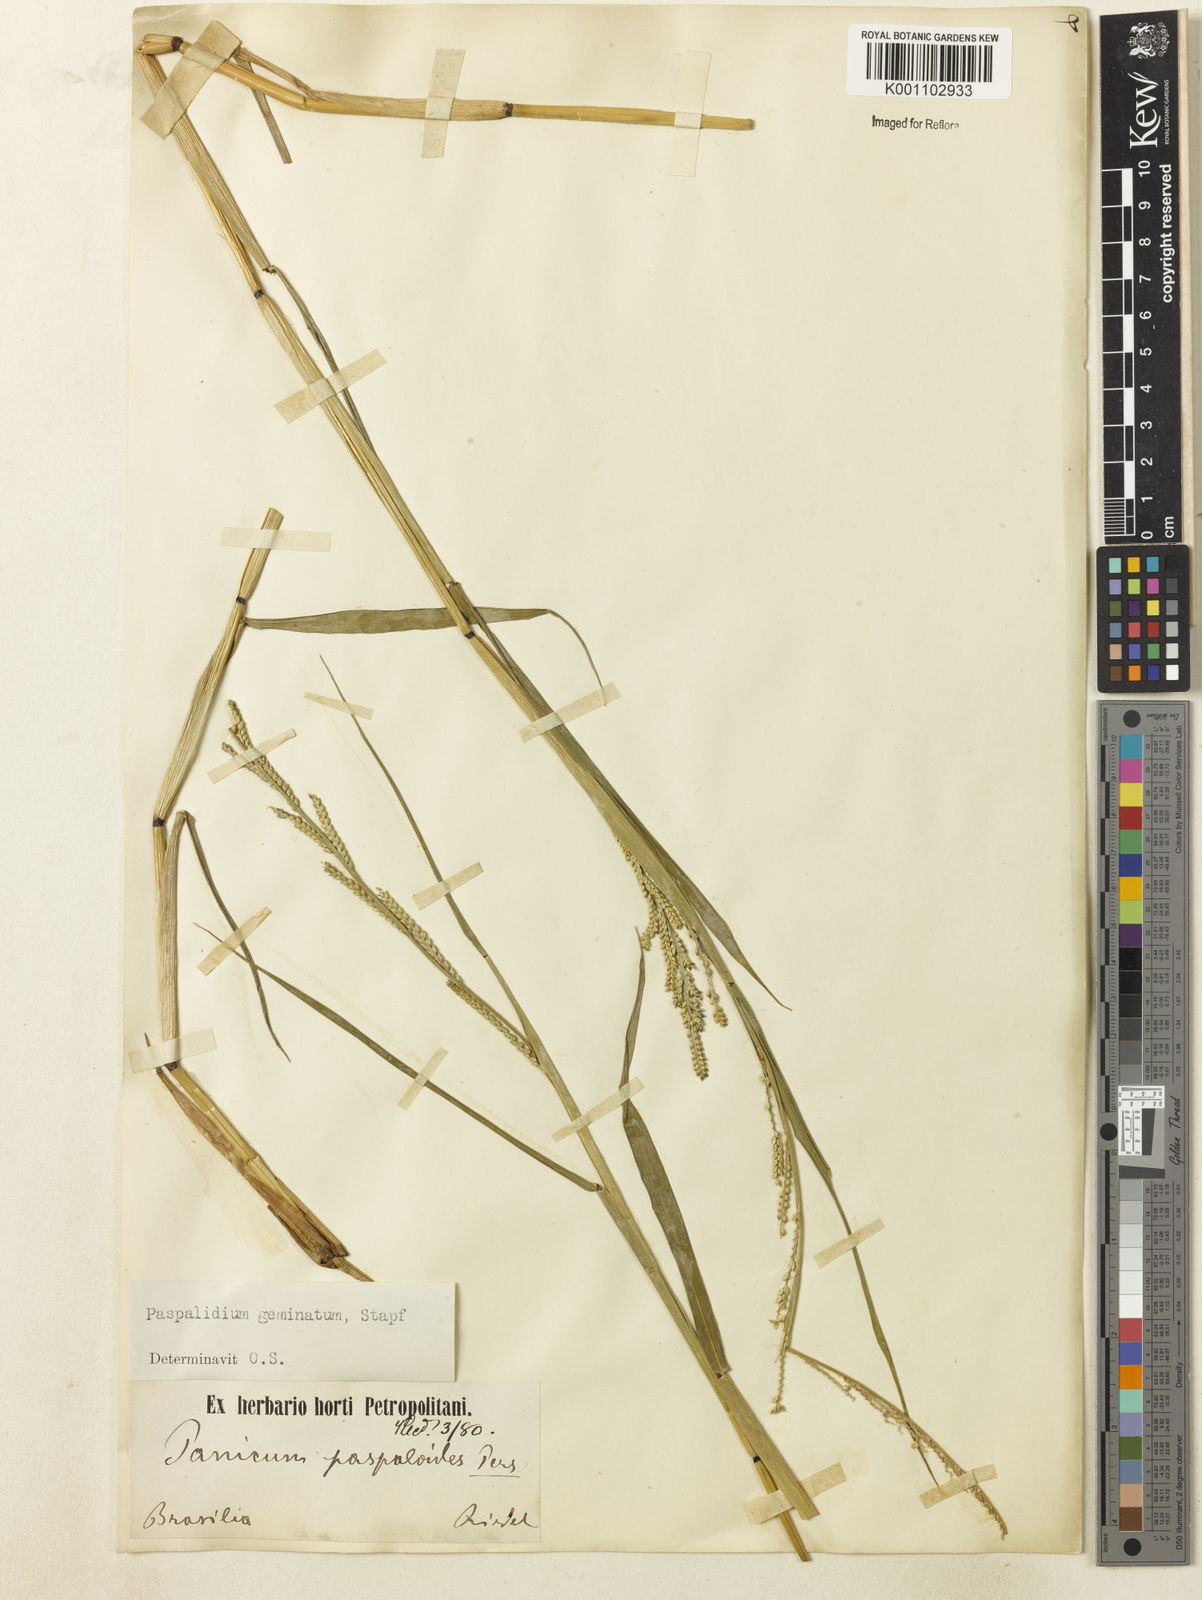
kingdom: Plantae
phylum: Tracheophyta
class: Liliopsida
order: Poales
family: Poaceae
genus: Setaria
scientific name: Setaria geminata
